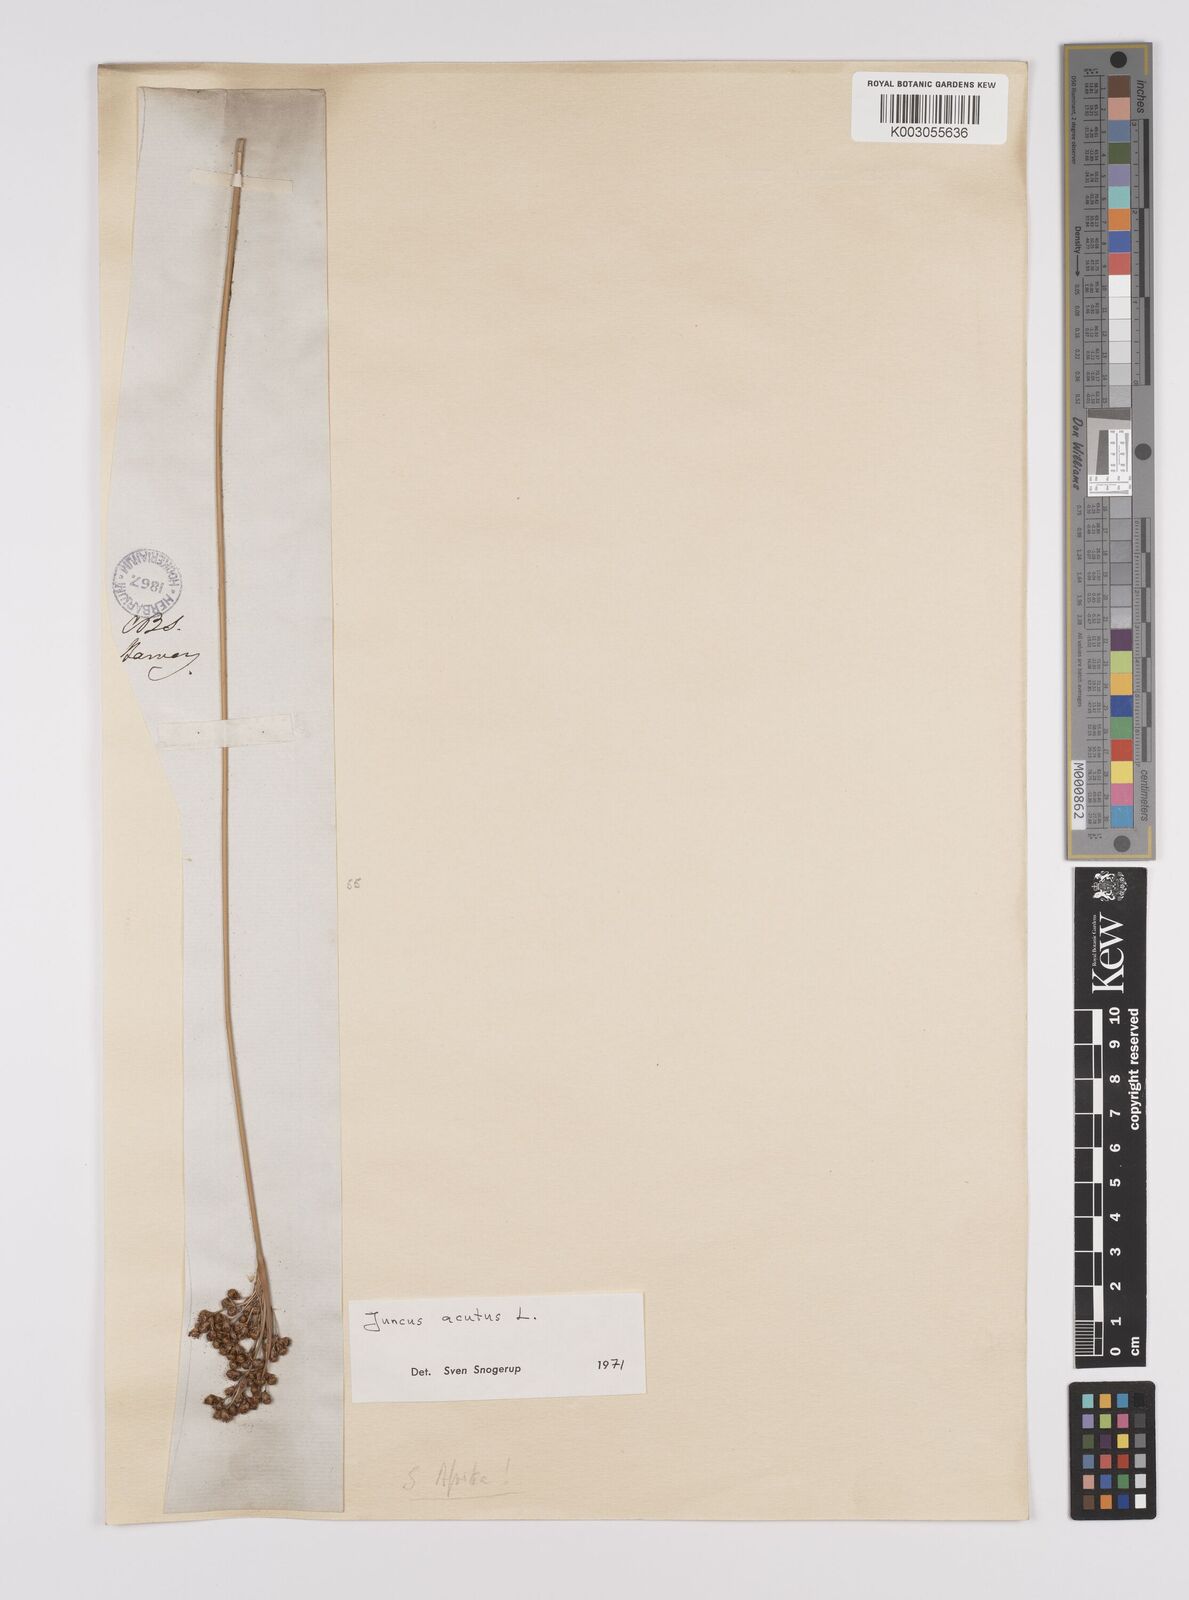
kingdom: Plantae
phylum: Tracheophyta
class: Liliopsida
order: Poales
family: Juncaceae
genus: Juncus
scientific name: Juncus acutus
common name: Sharp rush
